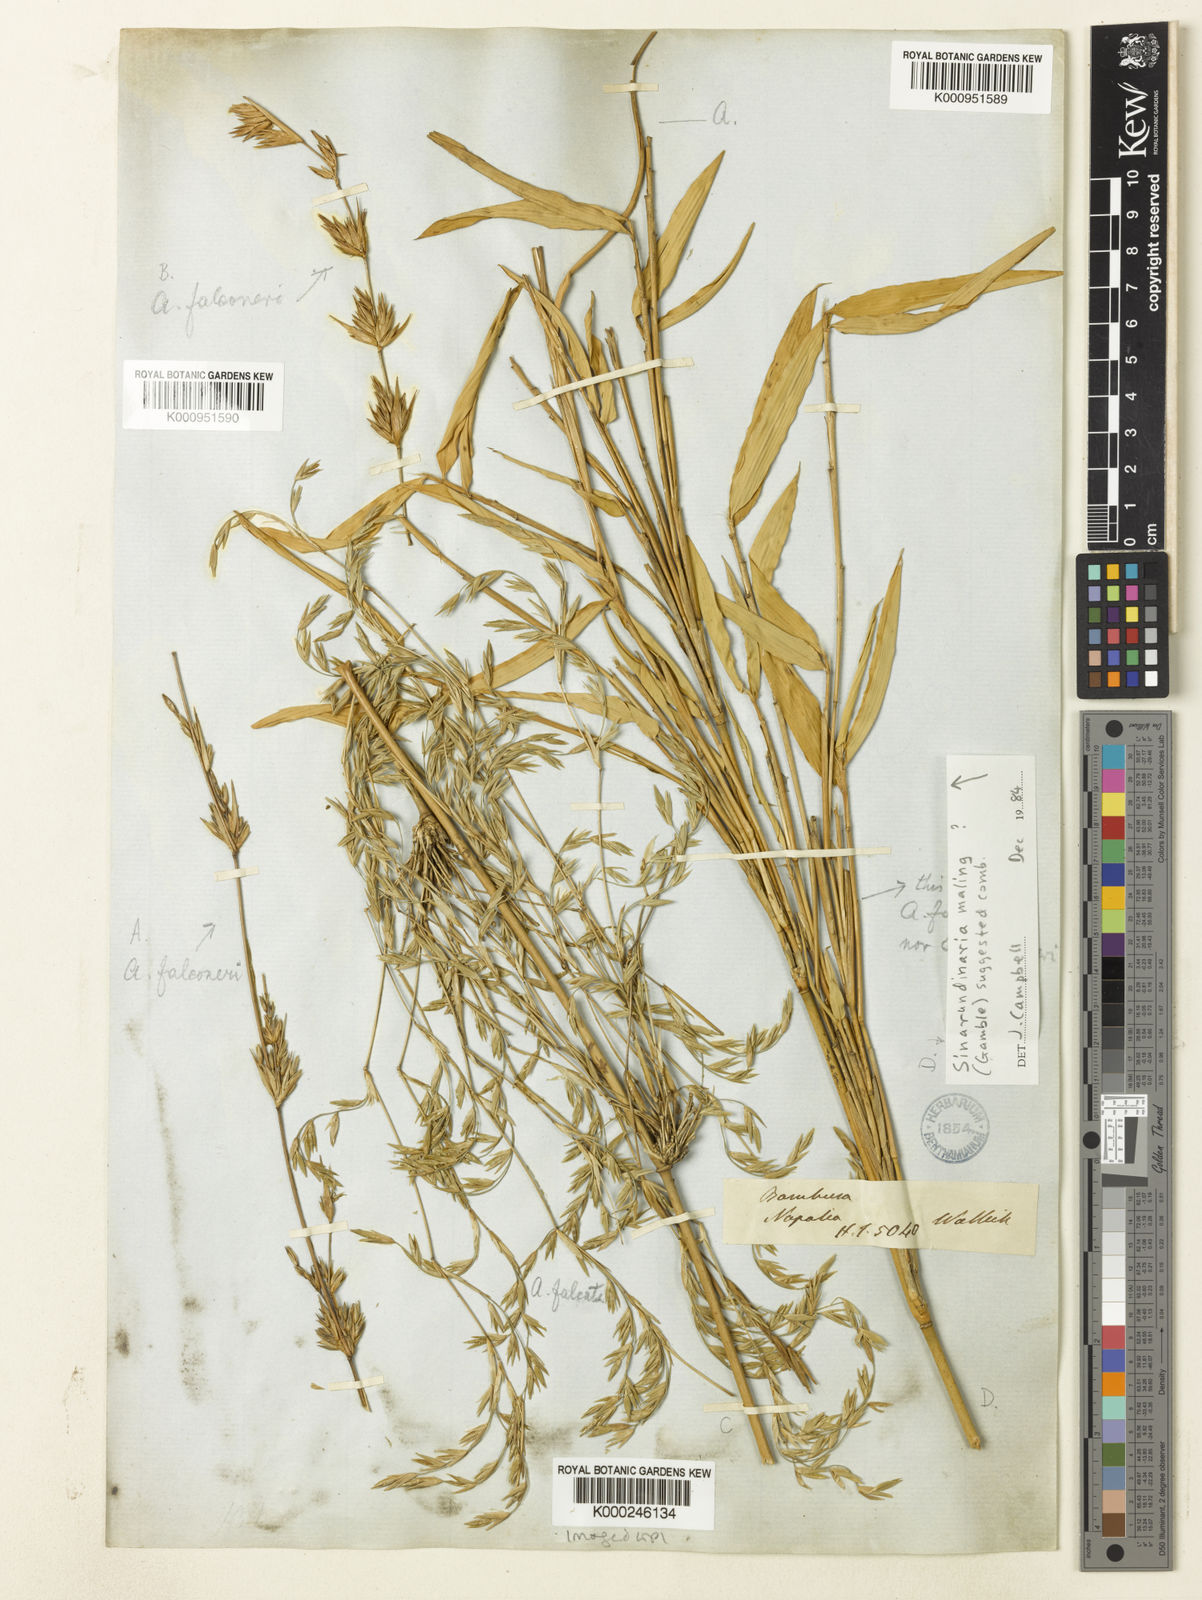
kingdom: Plantae
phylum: Tracheophyta
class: Liliopsida
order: Poales
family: Poaceae
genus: Himalayacalamus
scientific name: Himalayacalamus falconeri
